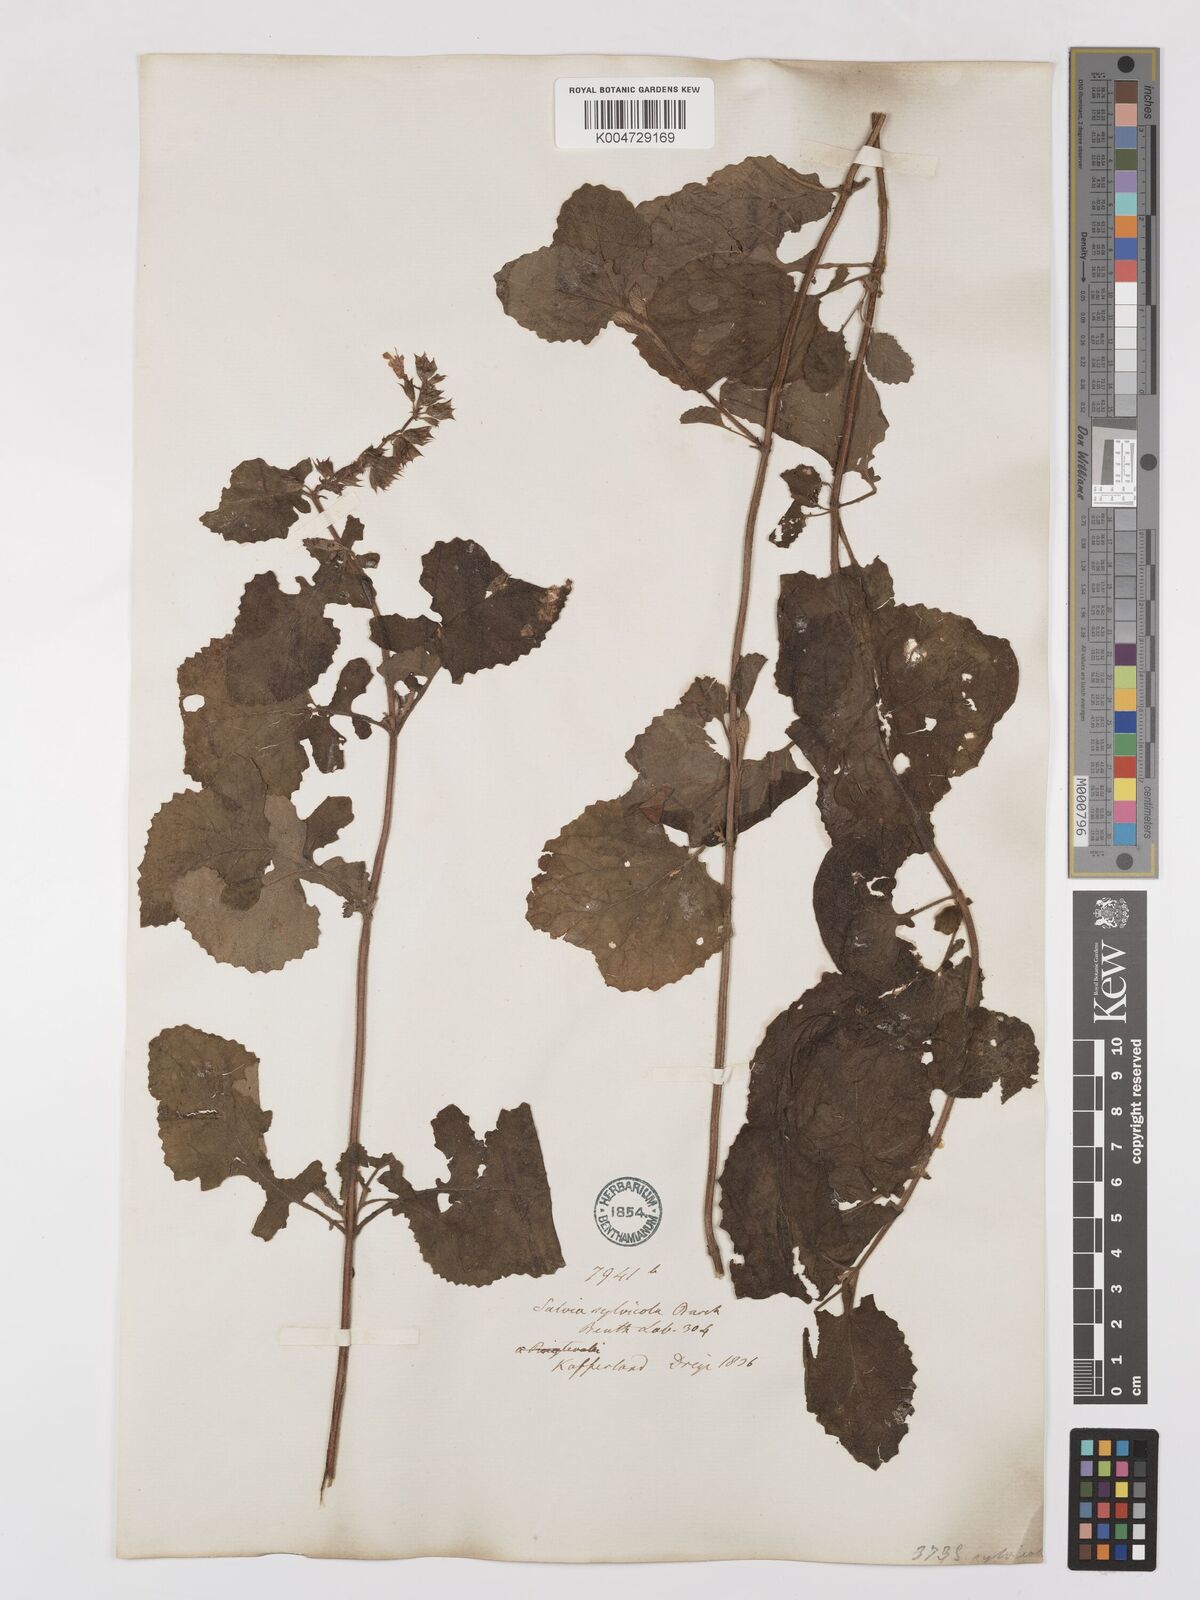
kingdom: Plantae
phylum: Tracheophyta
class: Magnoliopsida
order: Lamiales
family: Lamiaceae
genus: Salvia
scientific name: Salvia aurita
